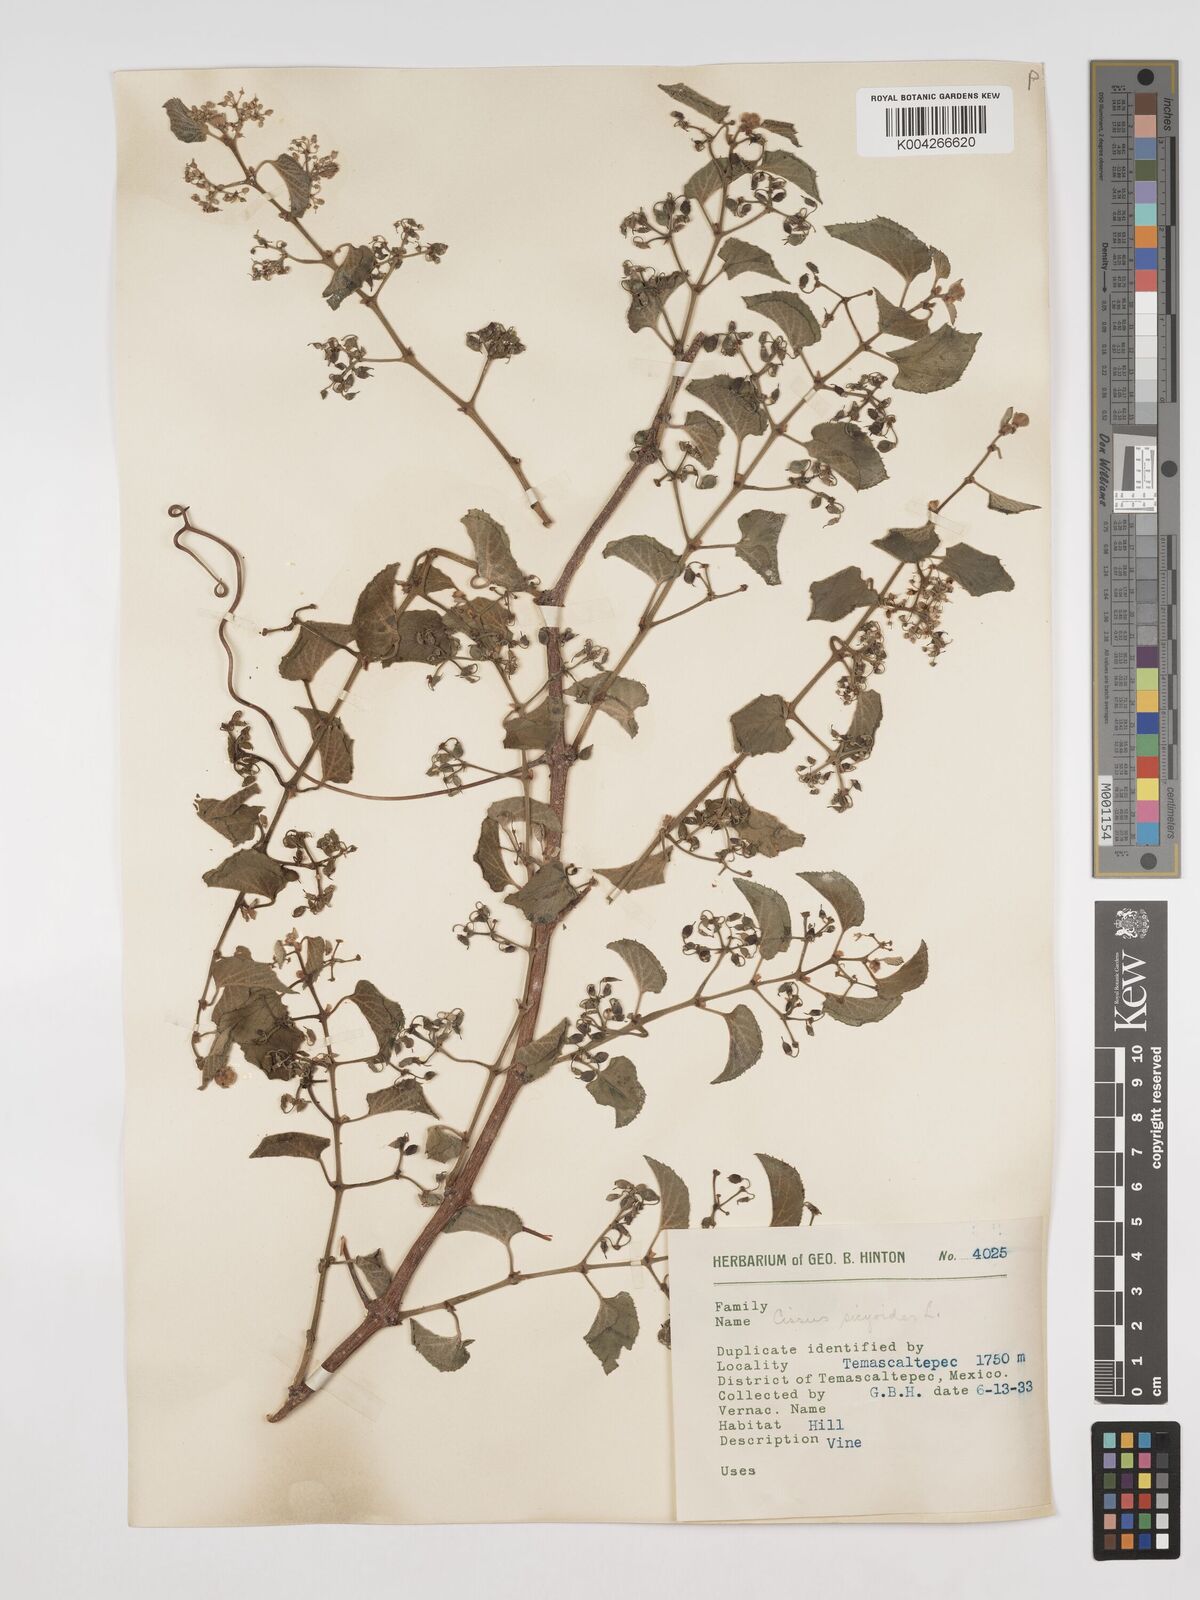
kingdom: Plantae
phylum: Tracheophyta
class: Magnoliopsida
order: Vitales
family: Vitaceae
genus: Cissus
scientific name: Cissus
